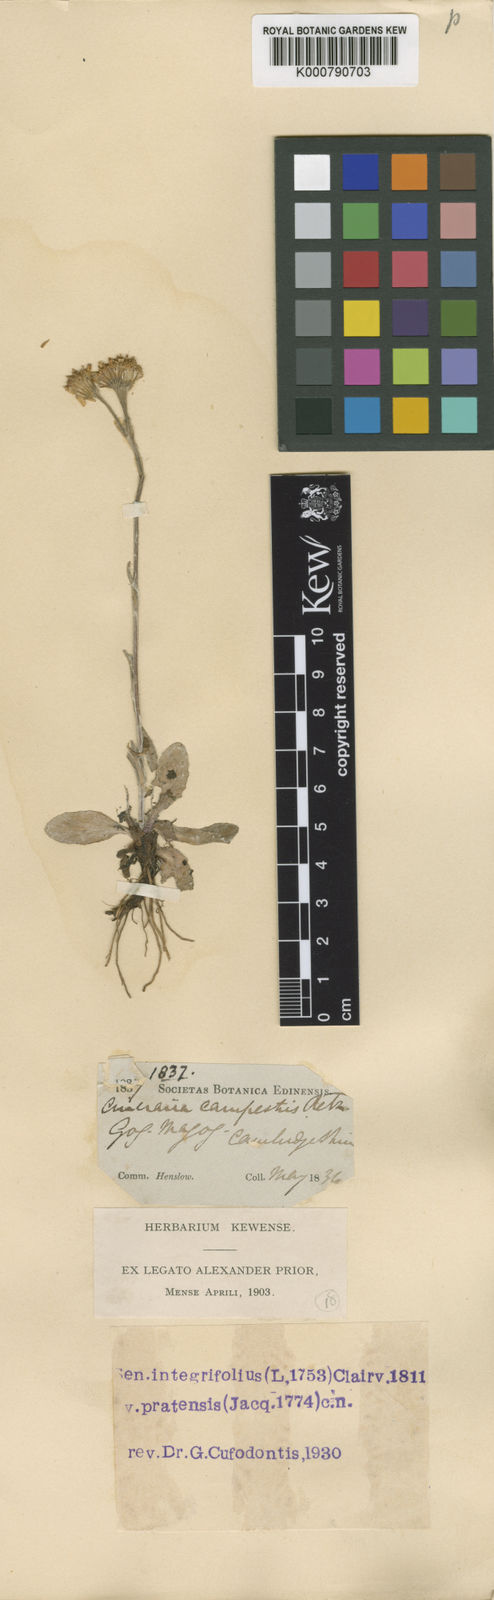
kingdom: Plantae
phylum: Tracheophyta
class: Magnoliopsida
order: Asterales
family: Asteraceae
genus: Tephroseris
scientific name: Tephroseris integrifolia
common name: Field fleawort
